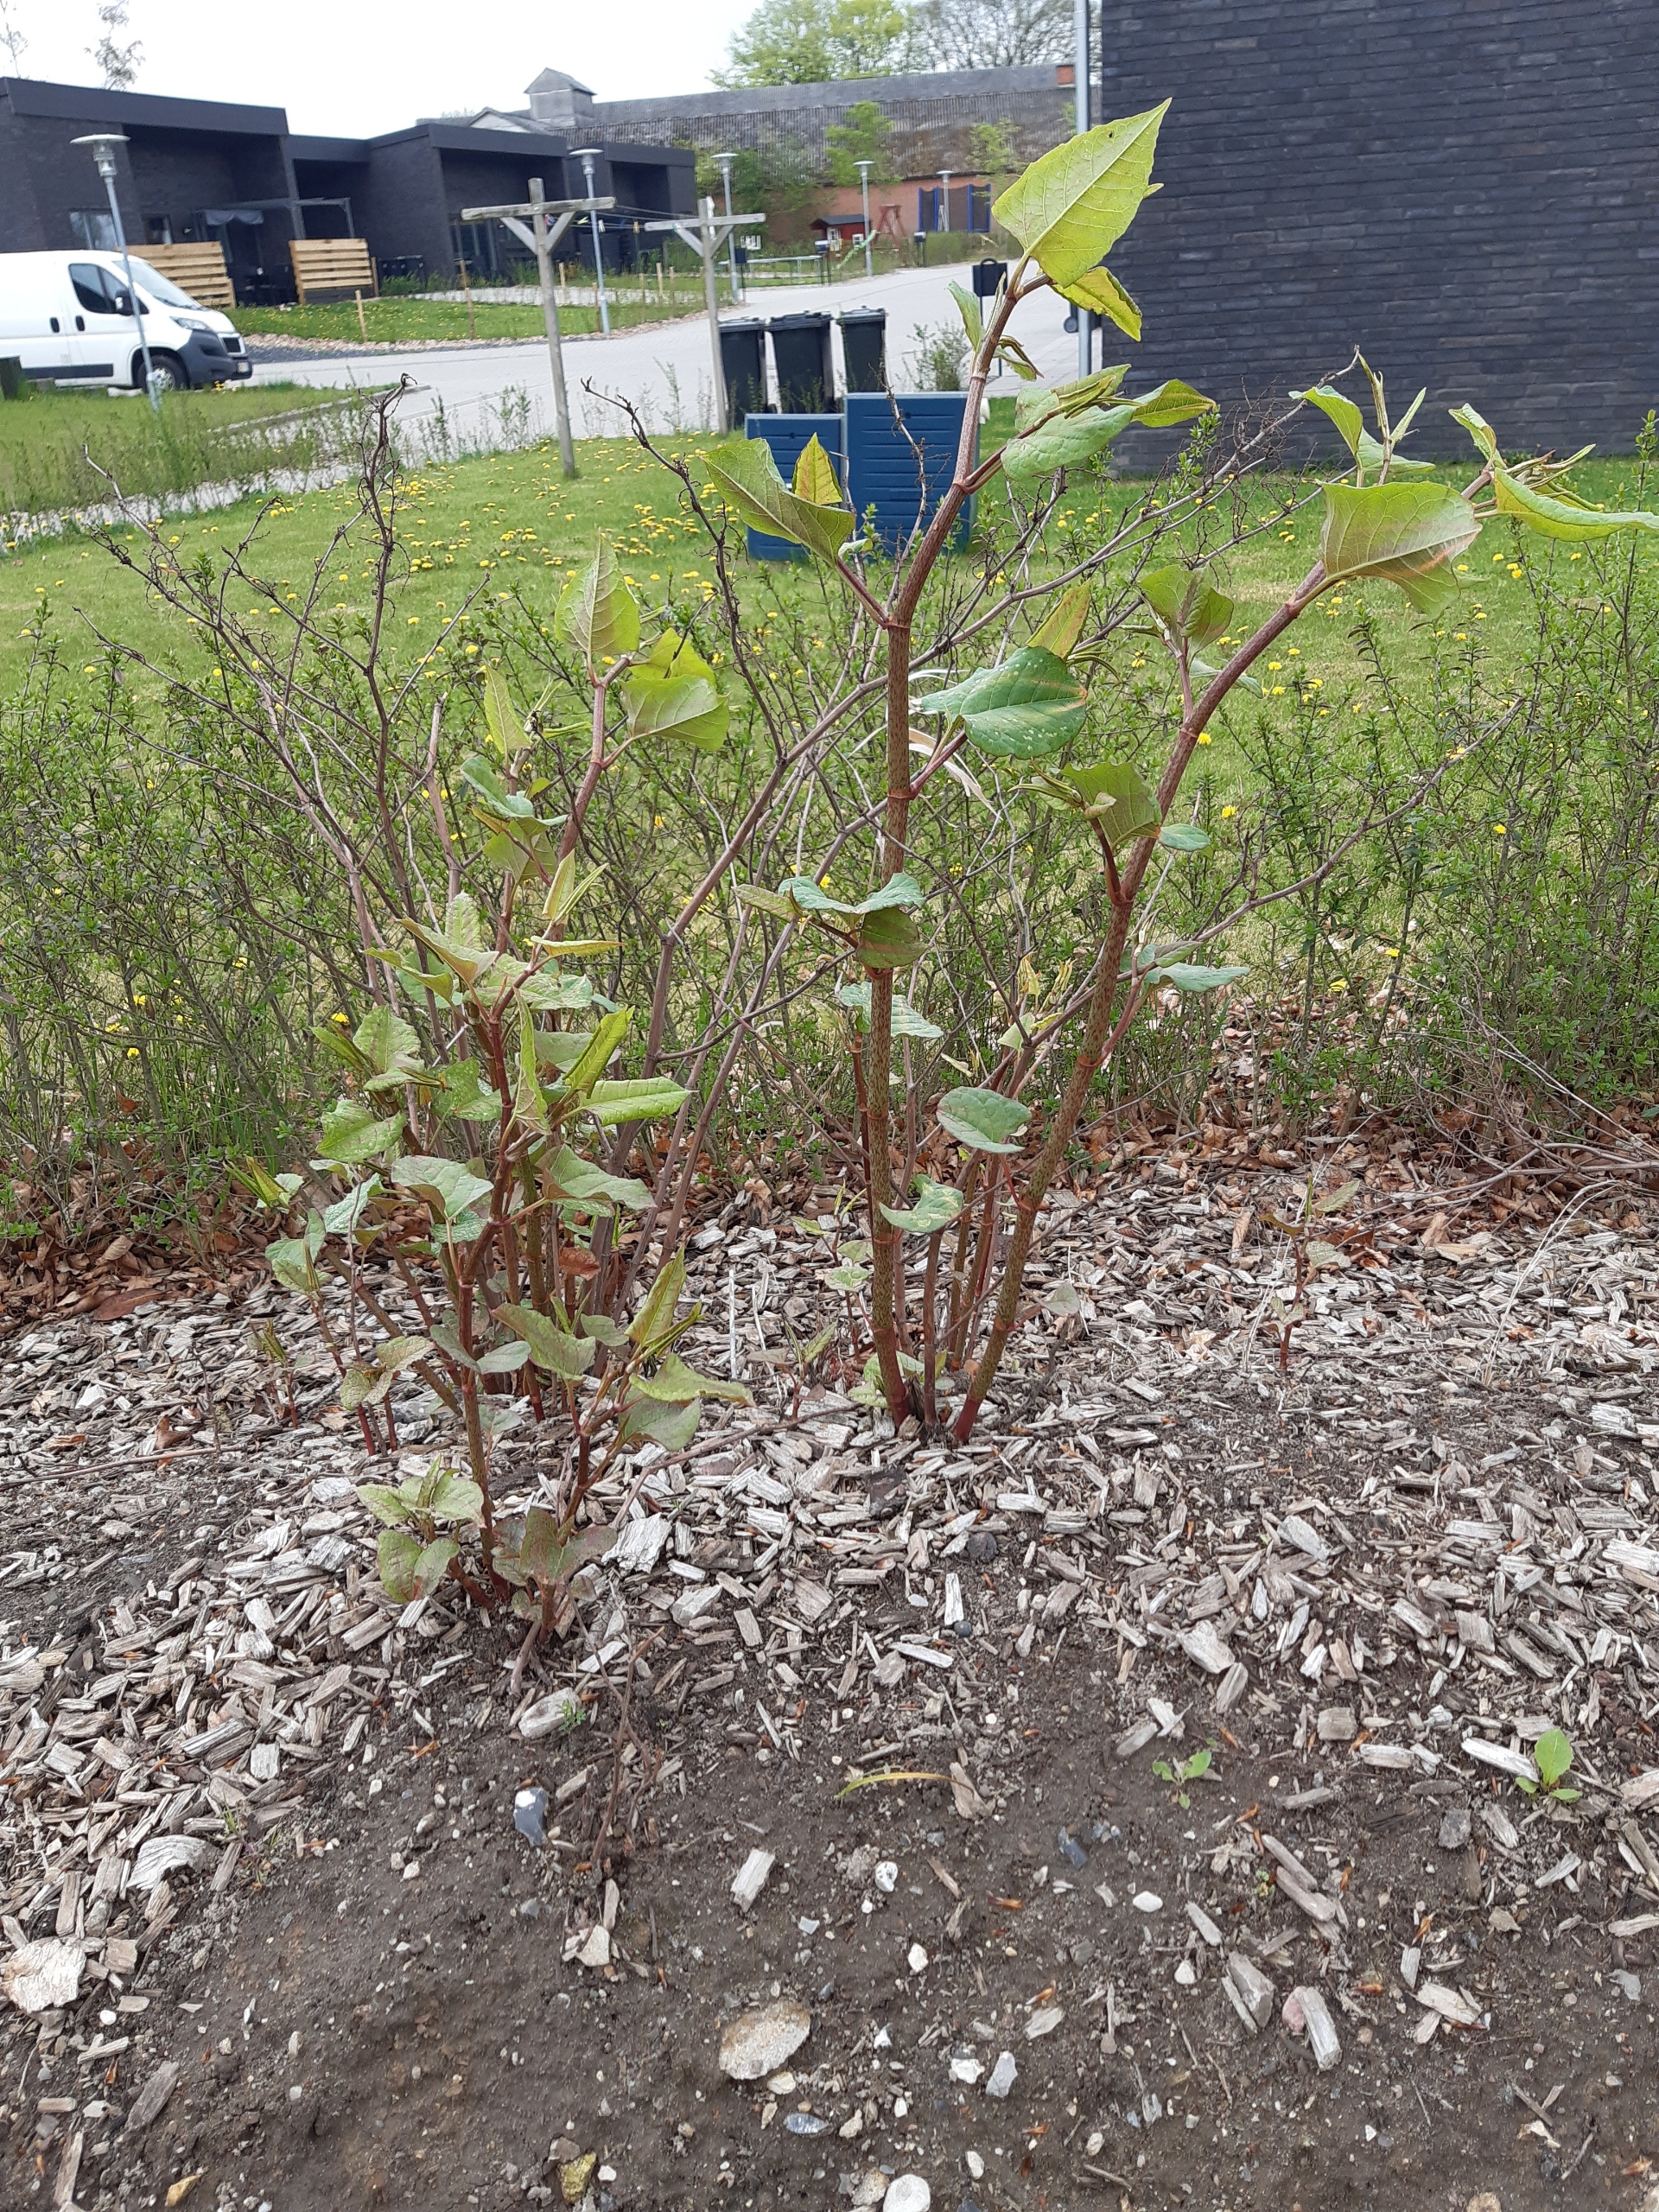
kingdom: Plantae
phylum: Tracheophyta
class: Magnoliopsida
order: Caryophyllales
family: Polygonaceae
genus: Reynoutria
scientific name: Reynoutria japonica
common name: Japan-pileurt
